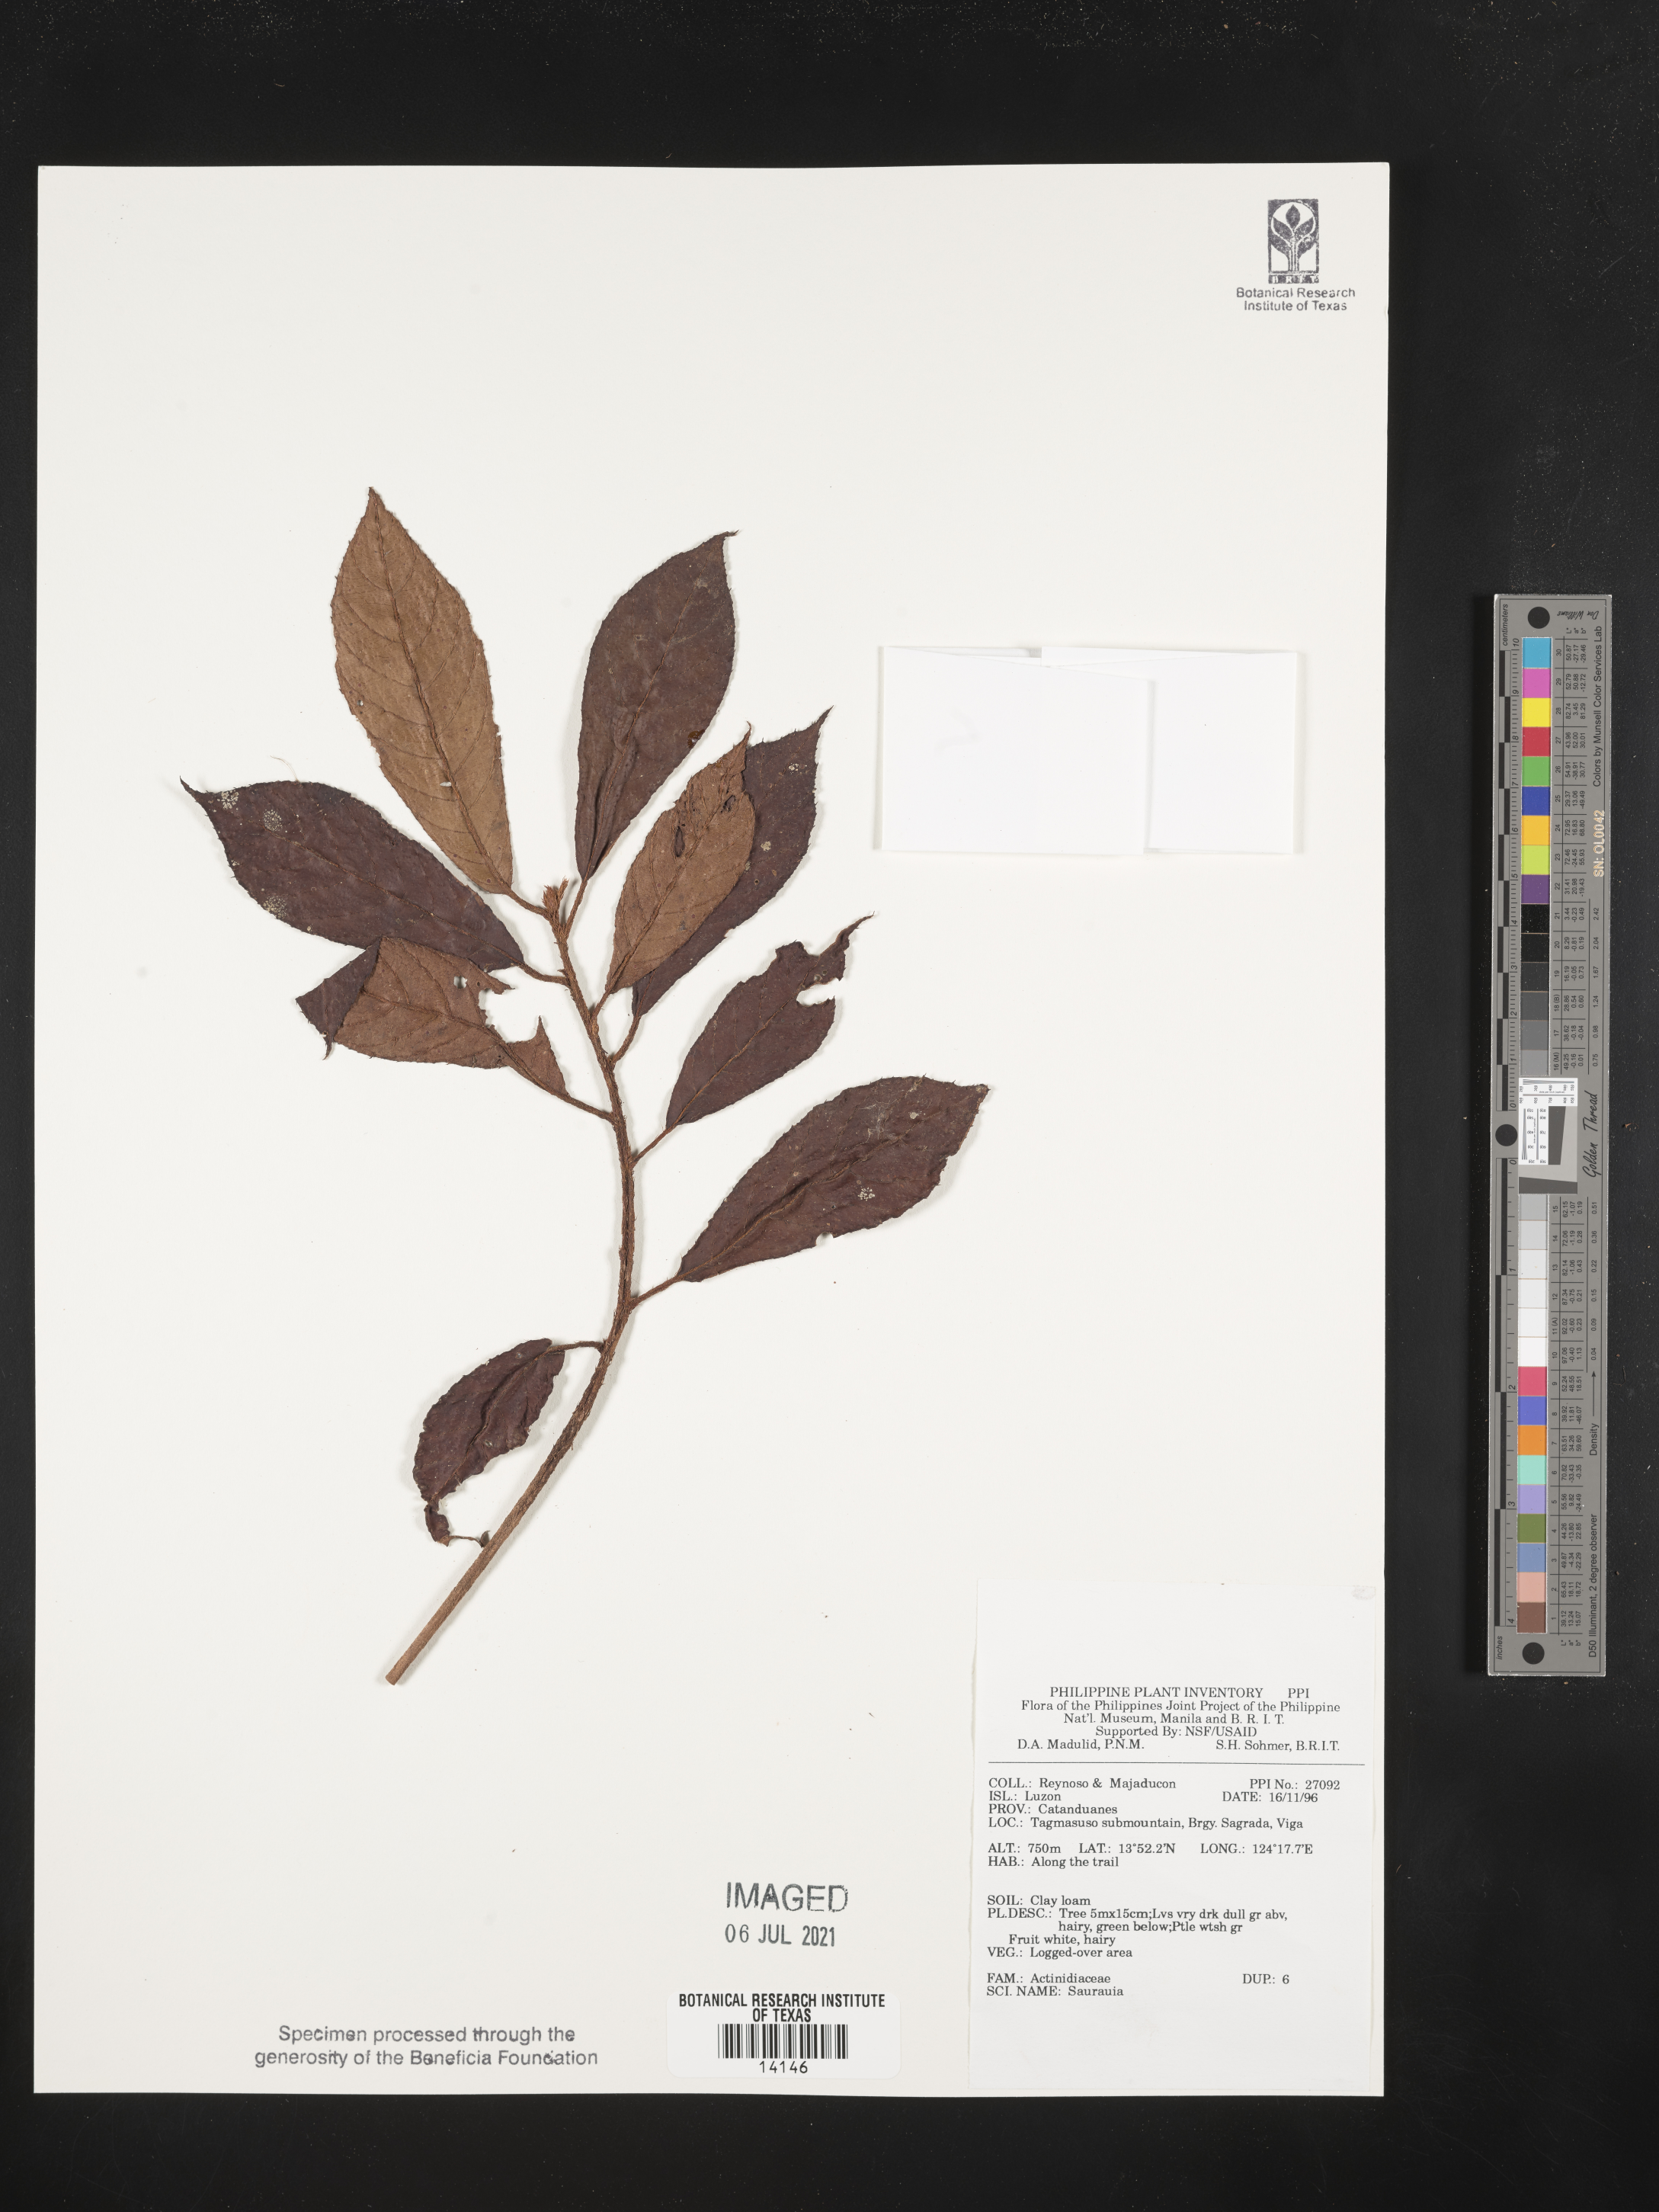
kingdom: Plantae
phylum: Tracheophyta
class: Magnoliopsida
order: Ericales
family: Actinidiaceae
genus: Saurauia
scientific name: Saurauia
